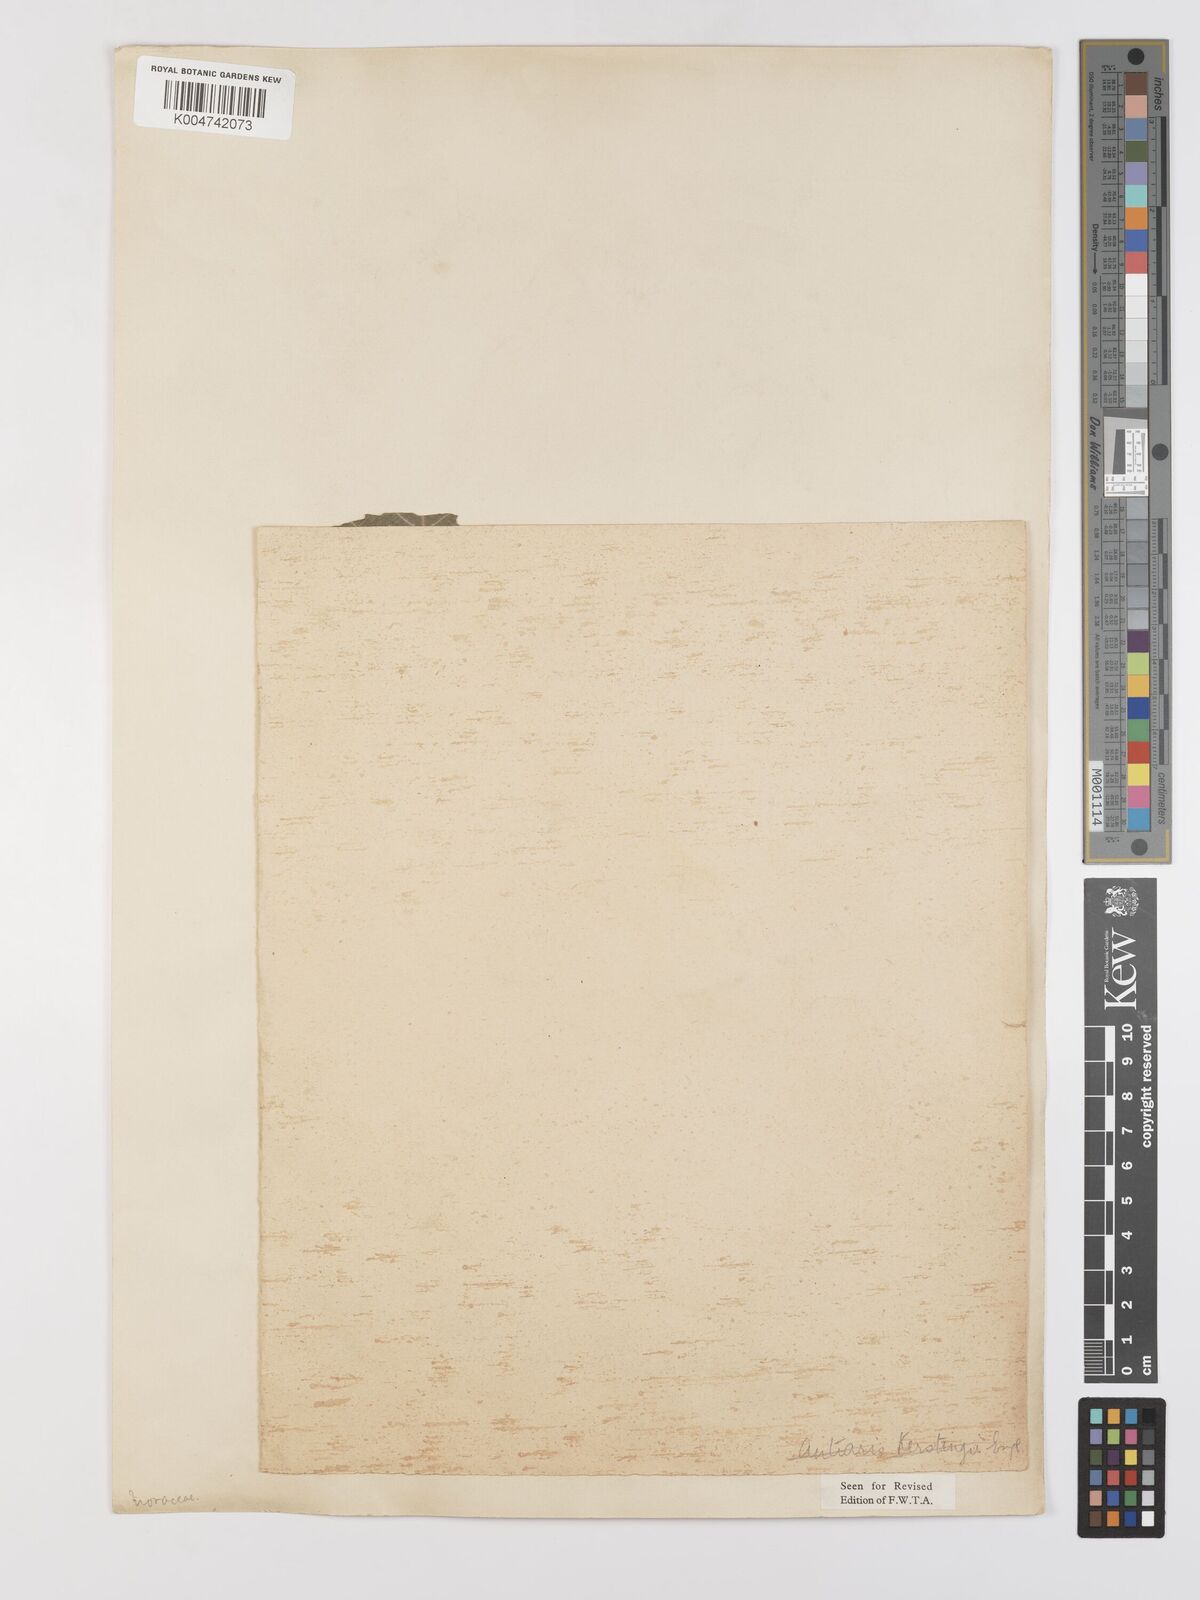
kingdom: Plantae
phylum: Tracheophyta
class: Magnoliopsida
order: Rosales
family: Moraceae
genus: Milicia
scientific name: Milicia excelsa
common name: African teak
